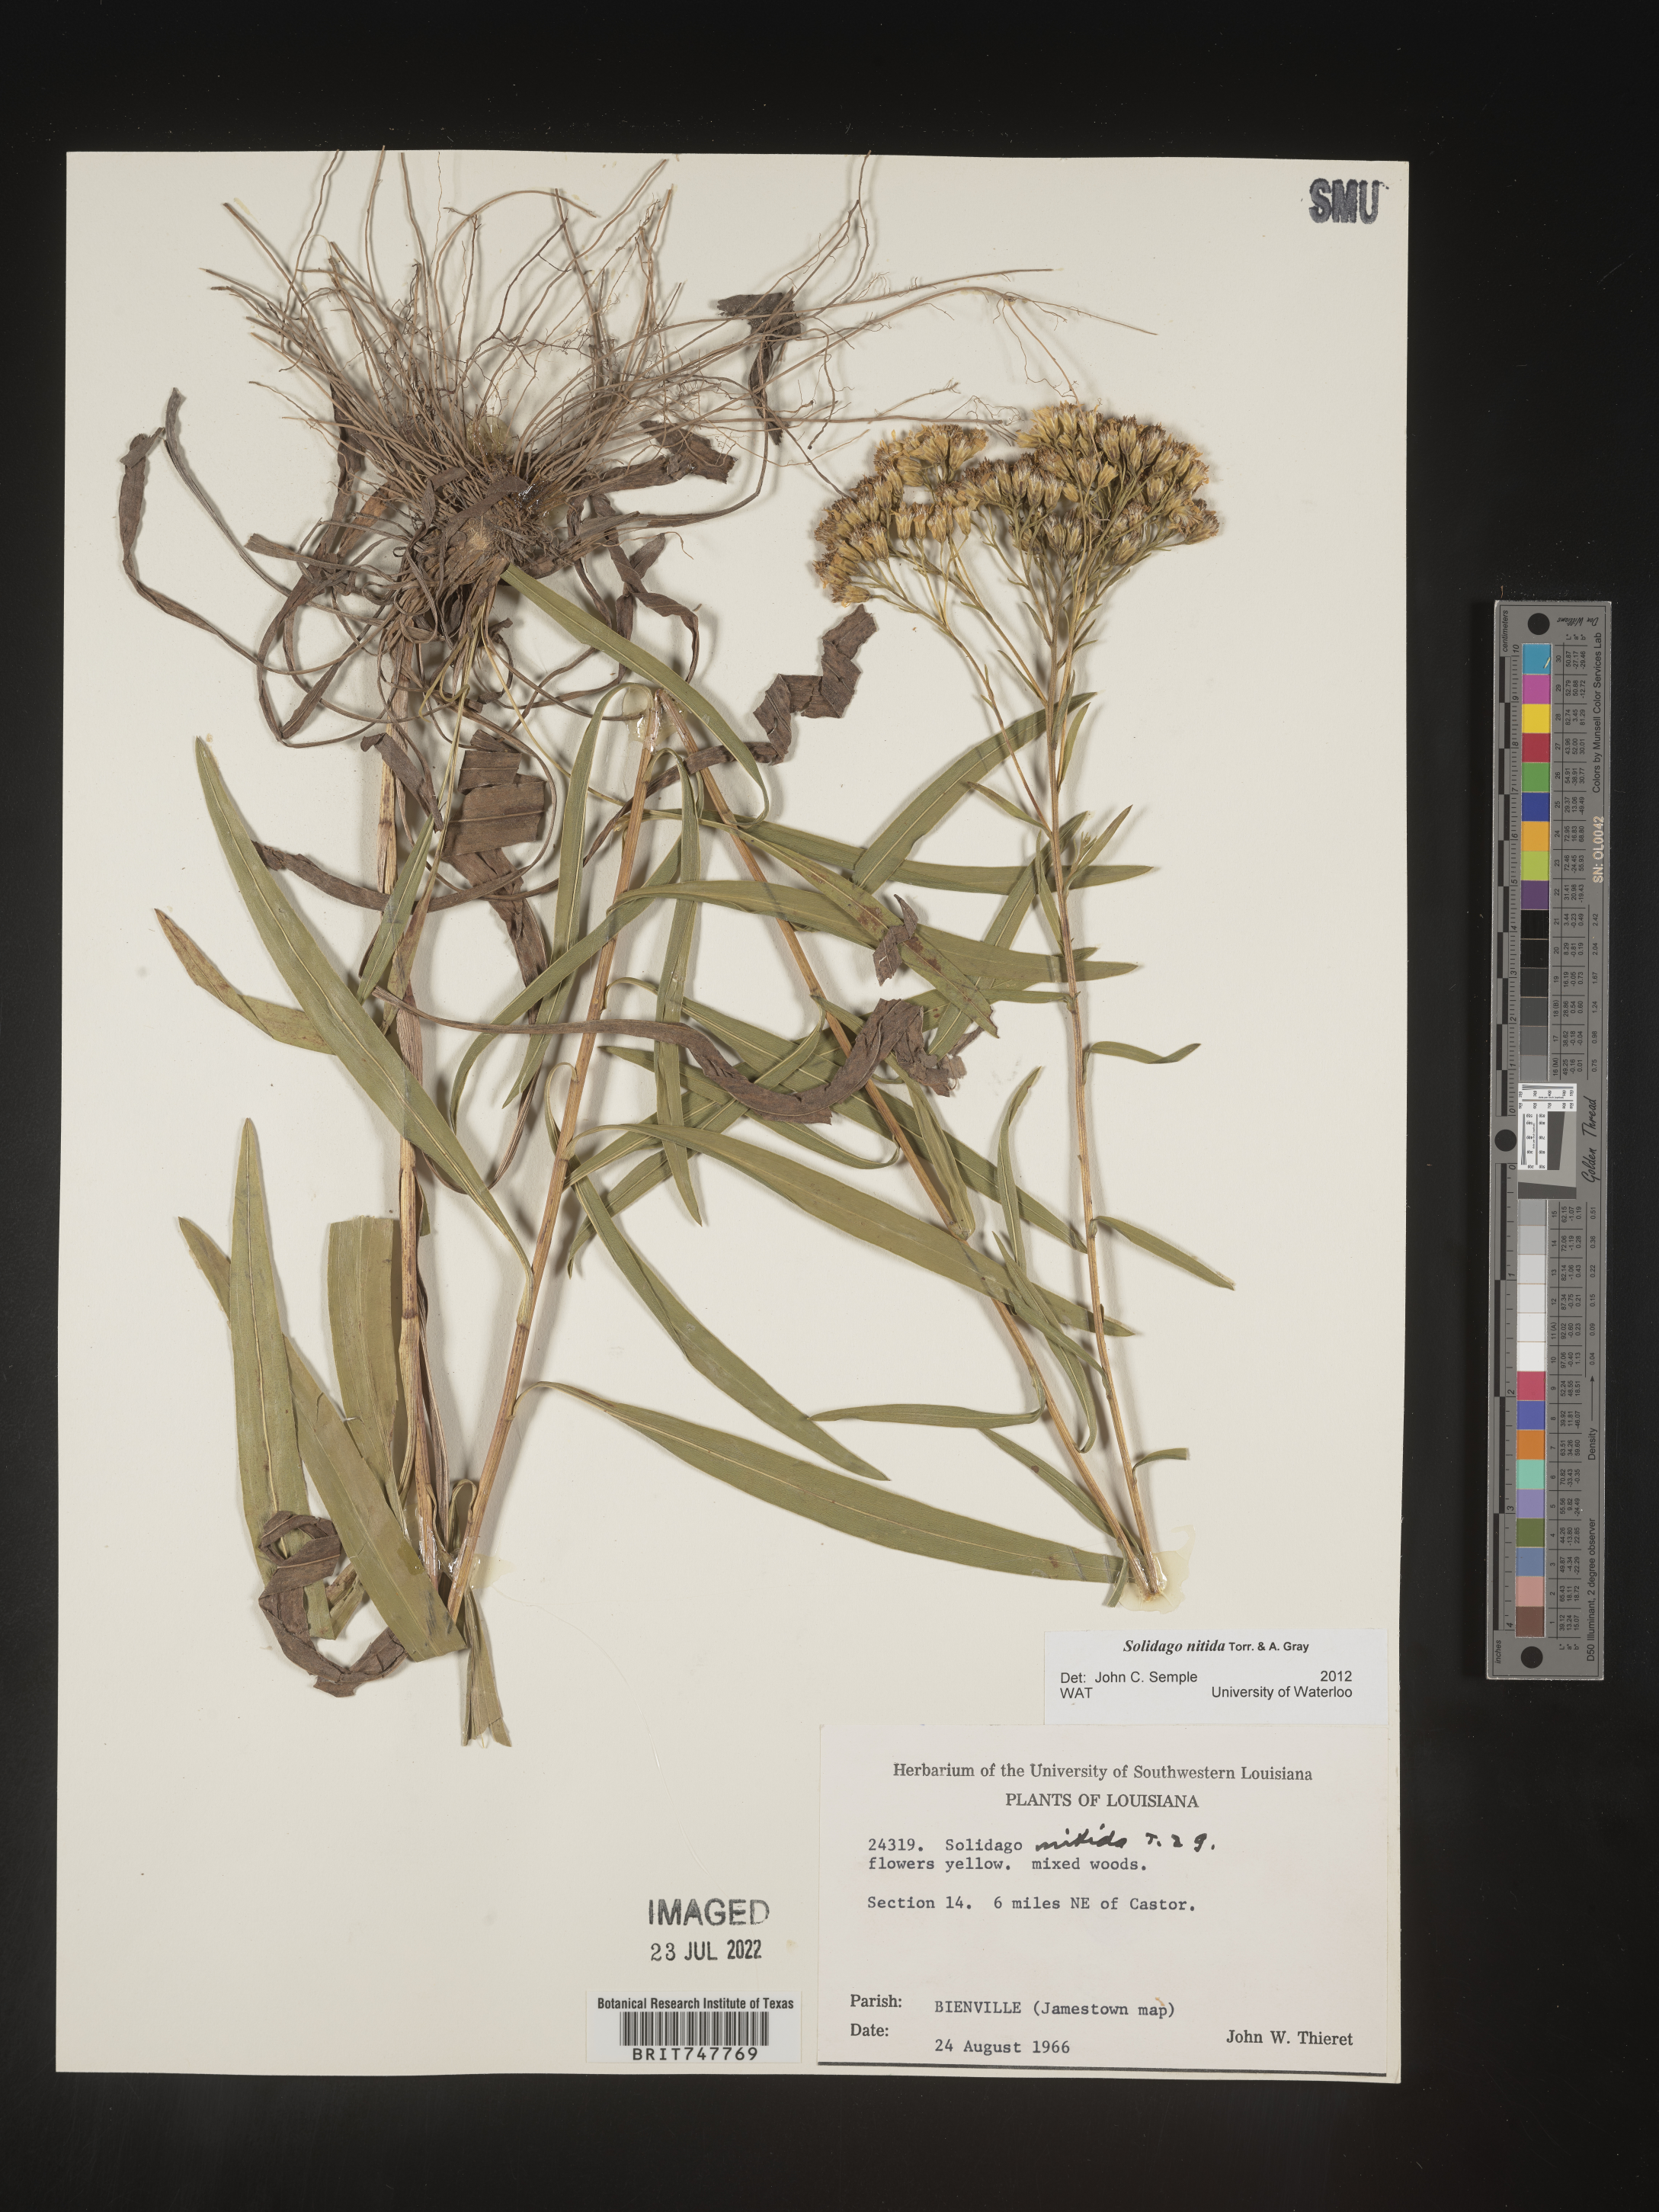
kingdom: Plantae
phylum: Tracheophyta
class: Magnoliopsida
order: Asterales
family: Asteraceae
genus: Solidago
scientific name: Solidago nitida
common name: Shiny goldenrod
